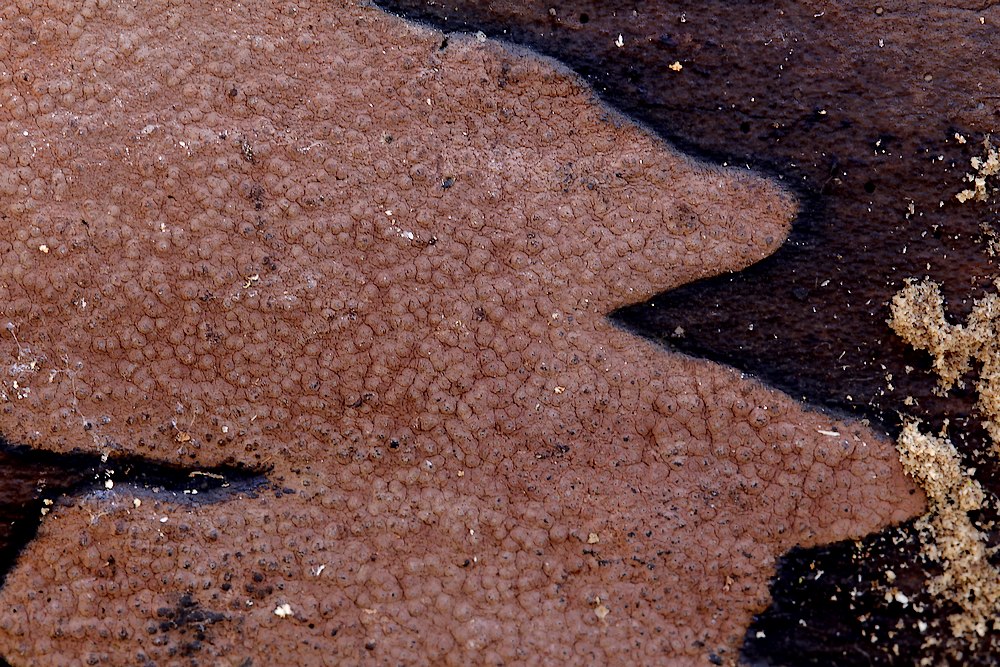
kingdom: Fungi
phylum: Ascomycota
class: Sordariomycetes
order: Xylariales
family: Hypoxylaceae
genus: Hypoxylon
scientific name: Hypoxylon petriniae
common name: nedsænket kulbær
